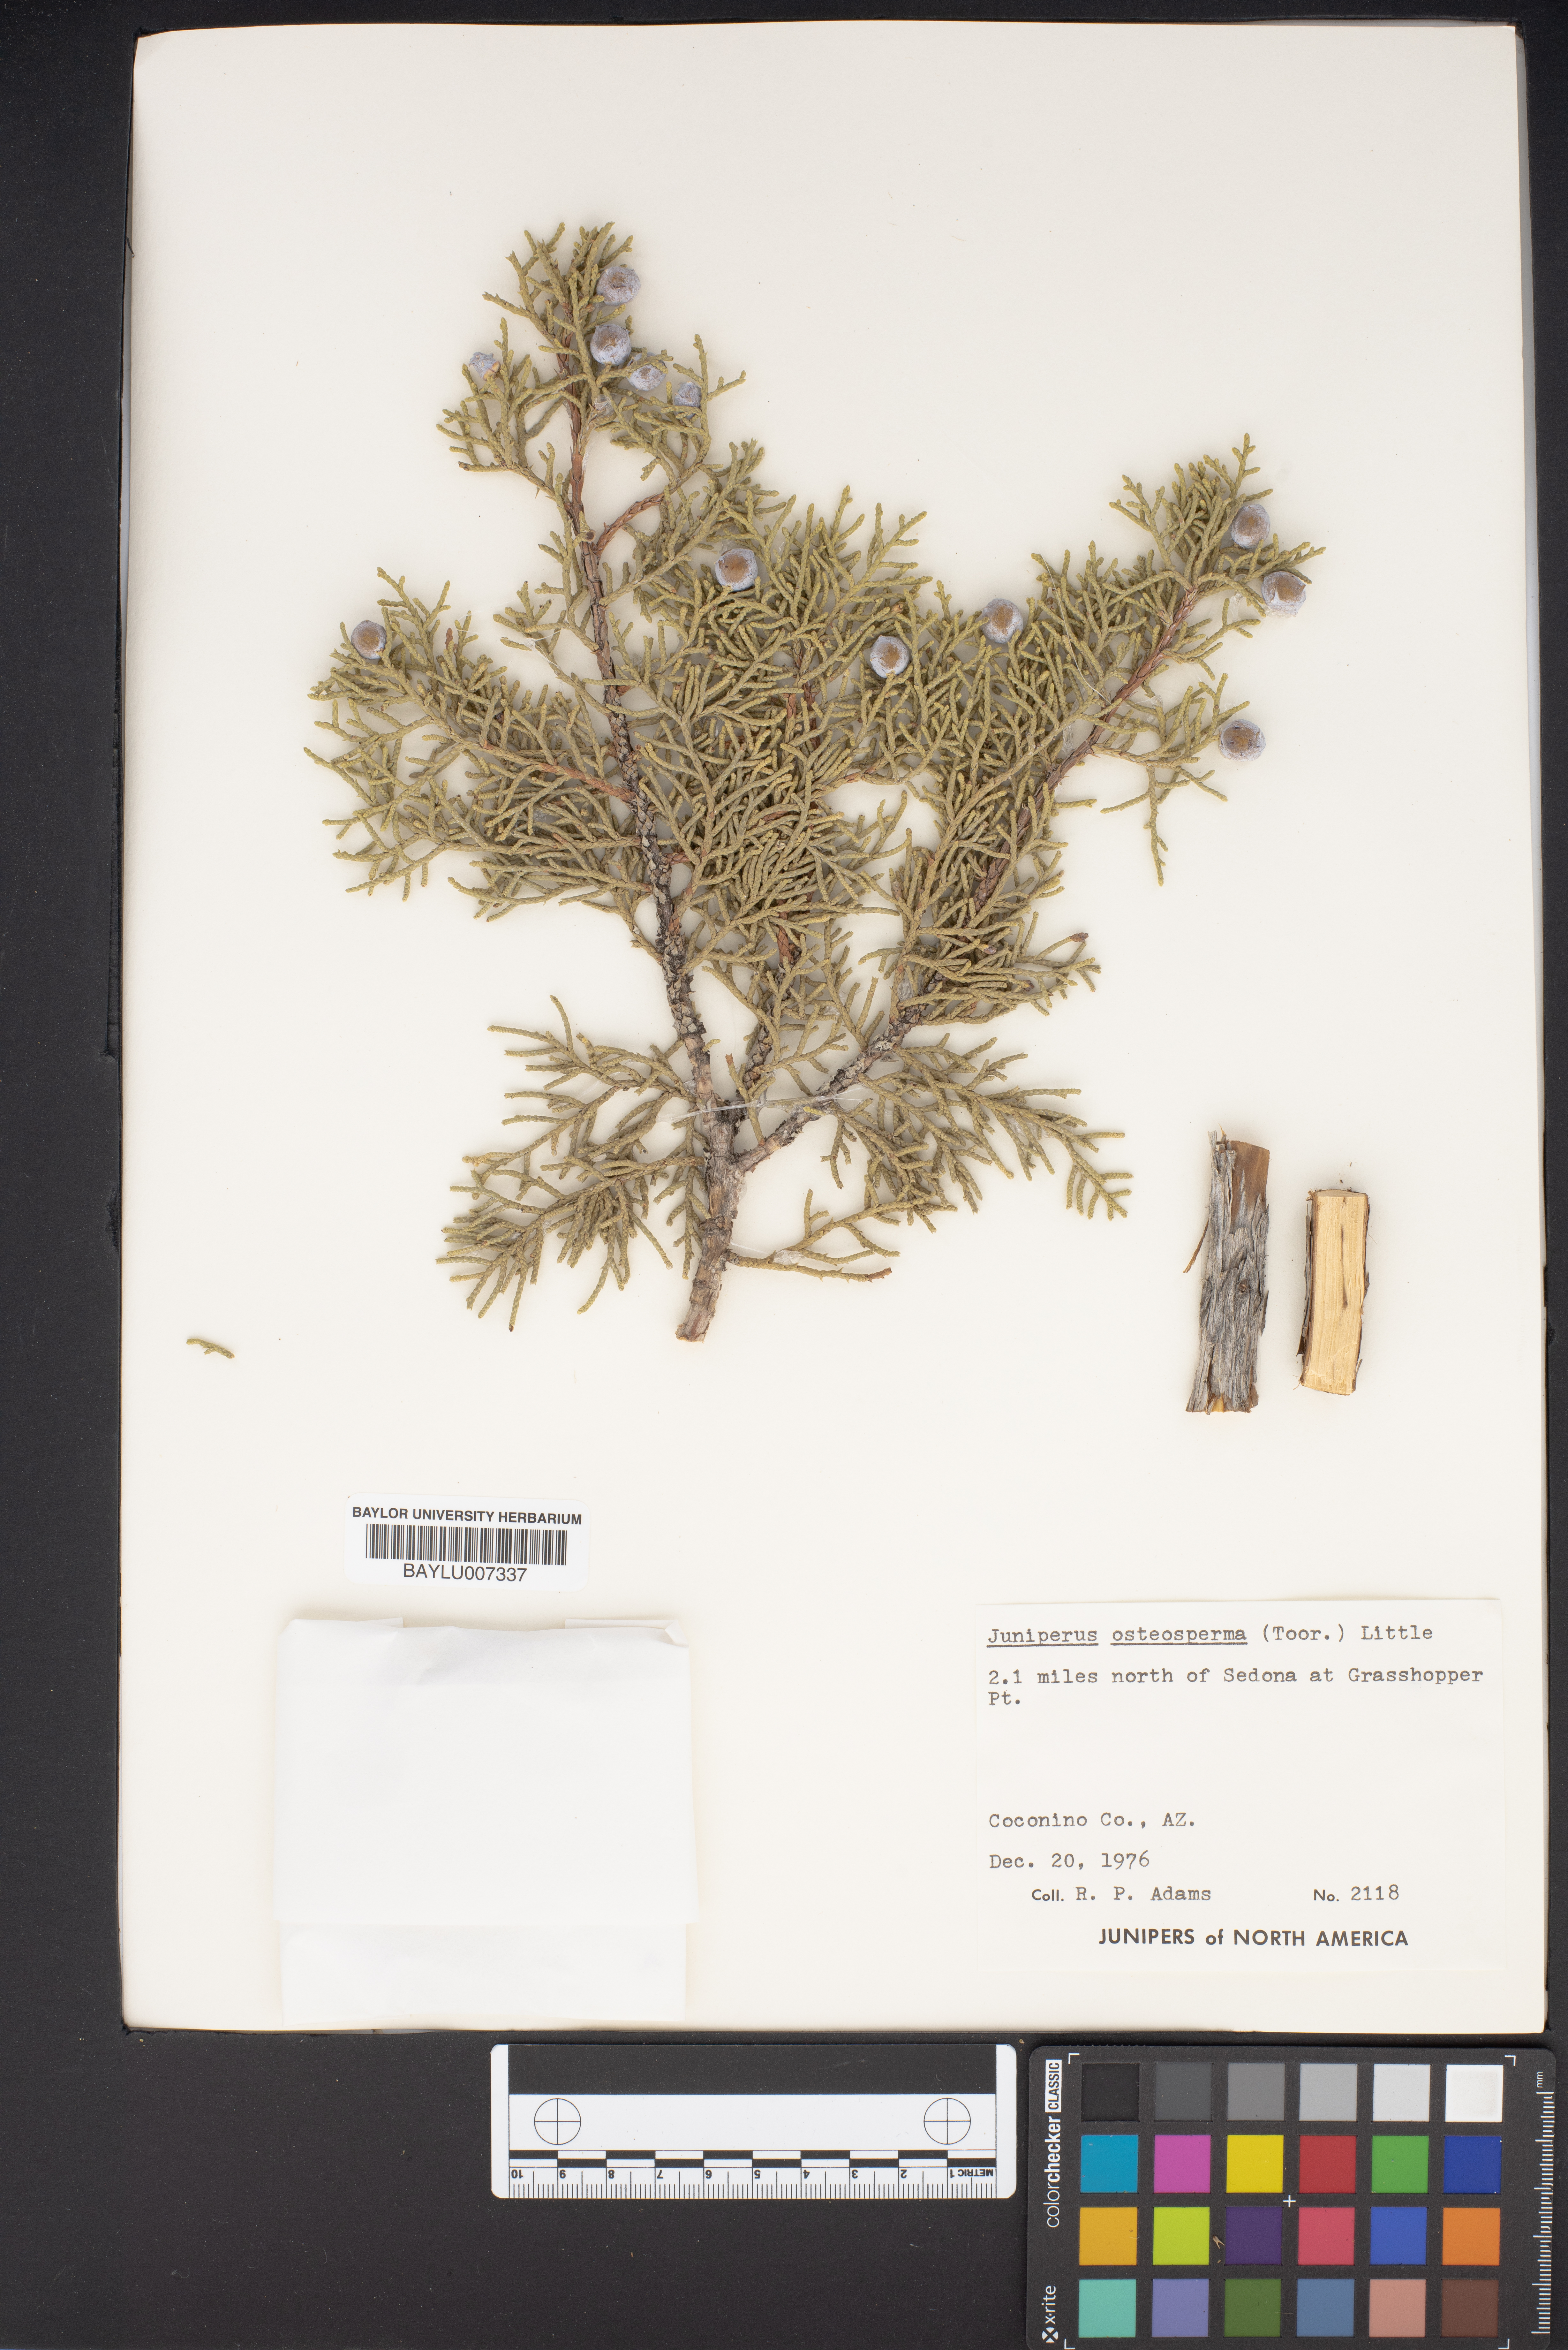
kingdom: Plantae
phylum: Tracheophyta
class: Pinopsida
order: Pinales
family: Cupressaceae
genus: Juniperus
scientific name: Juniperus osteosperma
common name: Utah juniper
